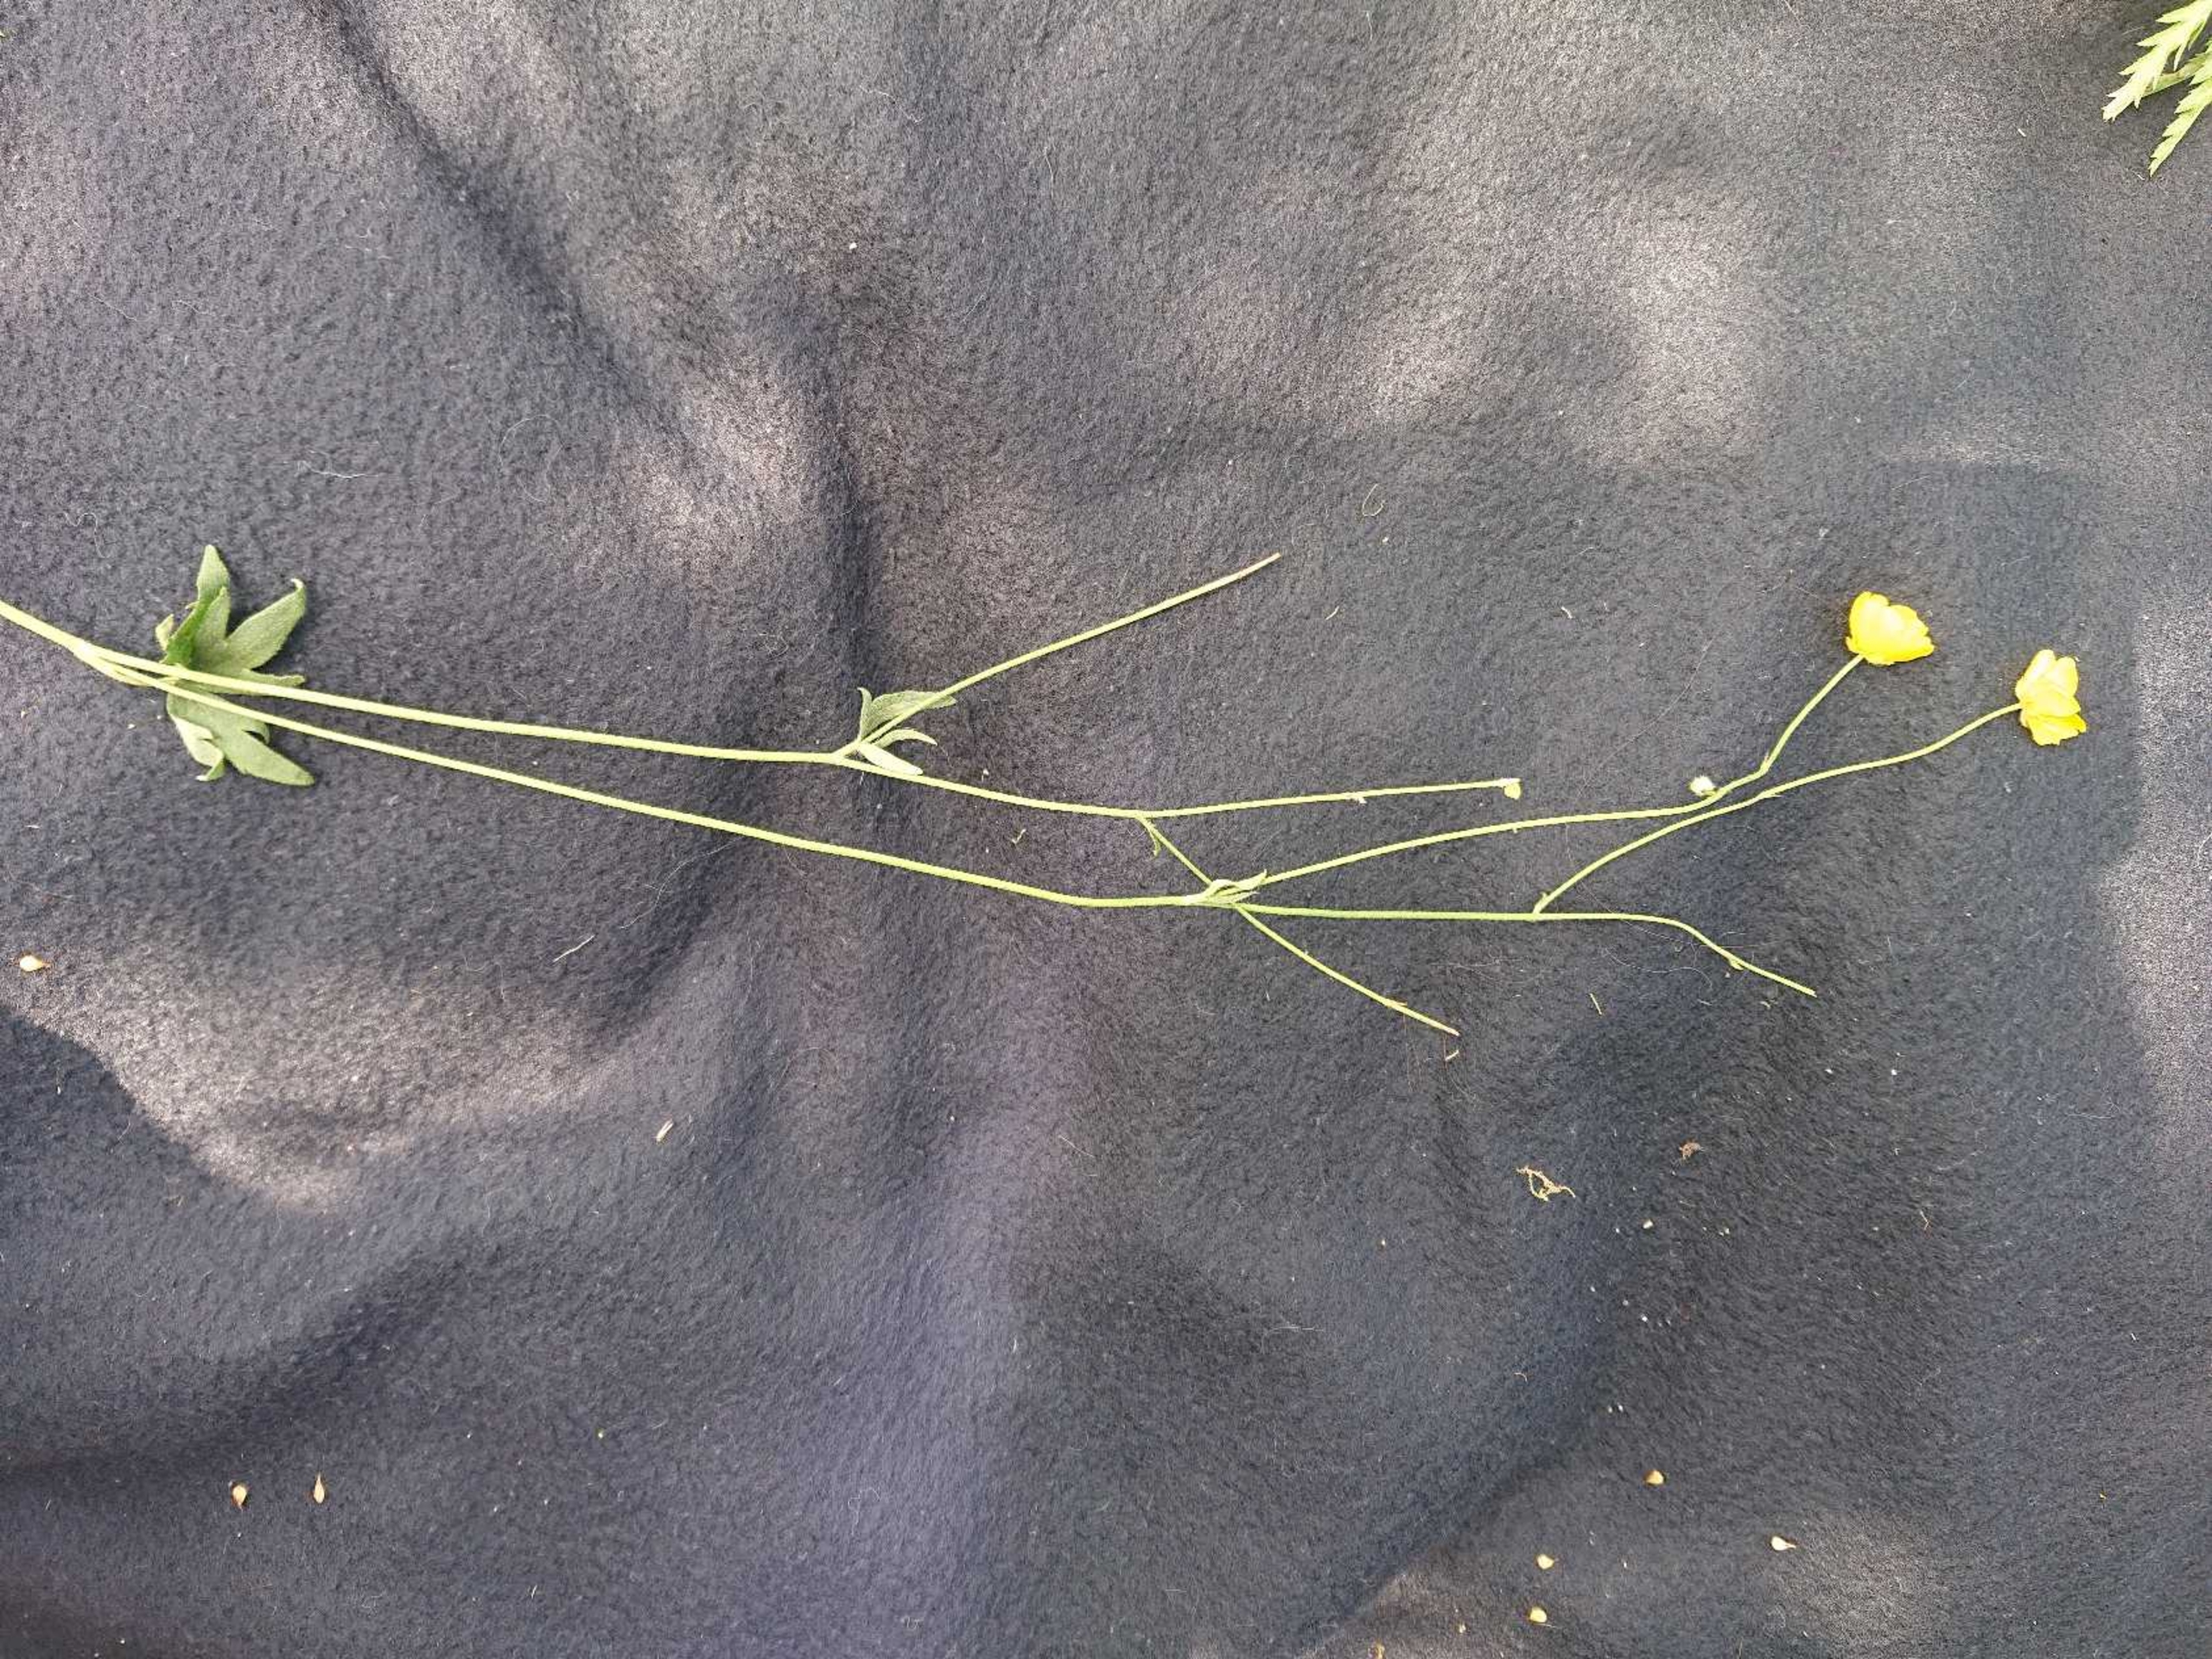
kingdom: Plantae
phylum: Tracheophyta
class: Magnoliopsida
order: Ranunculales
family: Ranunculaceae
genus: Ranunculus
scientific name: Ranunculus acris
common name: Bidende ranunkel
